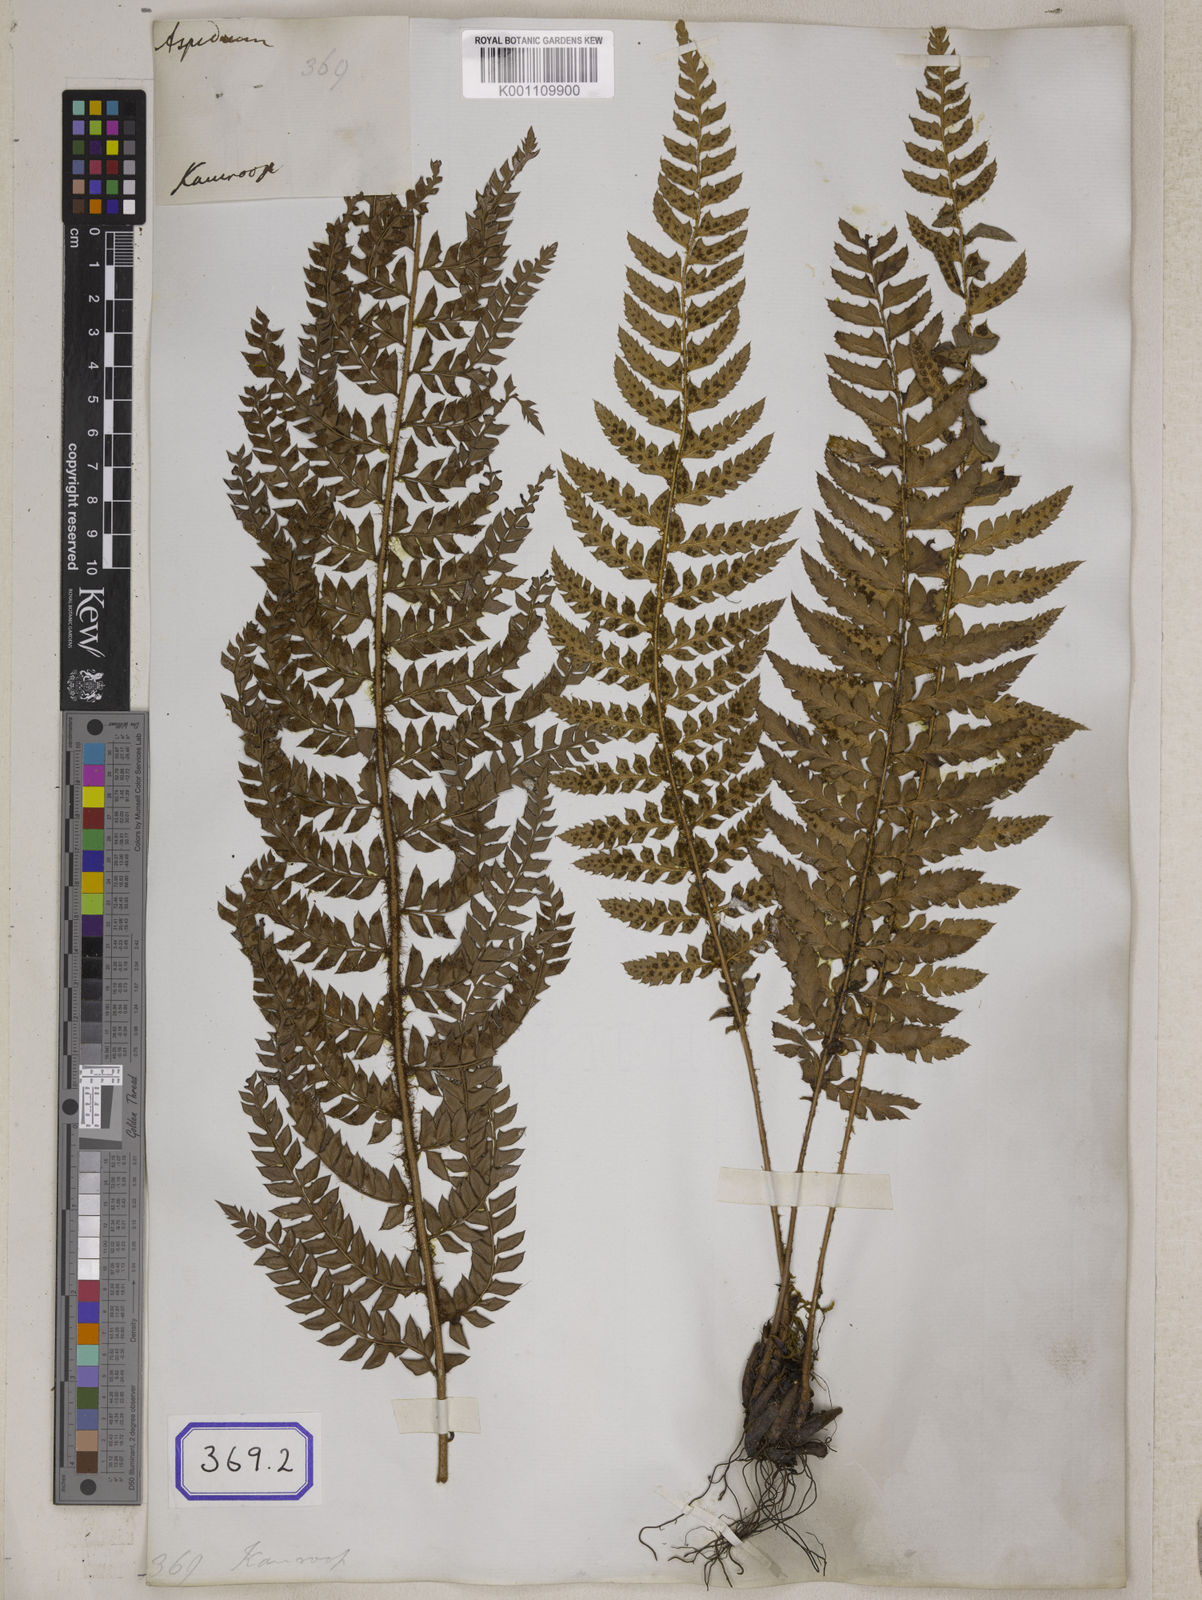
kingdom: Plantae
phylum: Tracheophyta
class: Polypodiopsida
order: Polypodiales
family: Dryopteridaceae
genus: Polystichum
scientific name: Polystichum squarrosum
